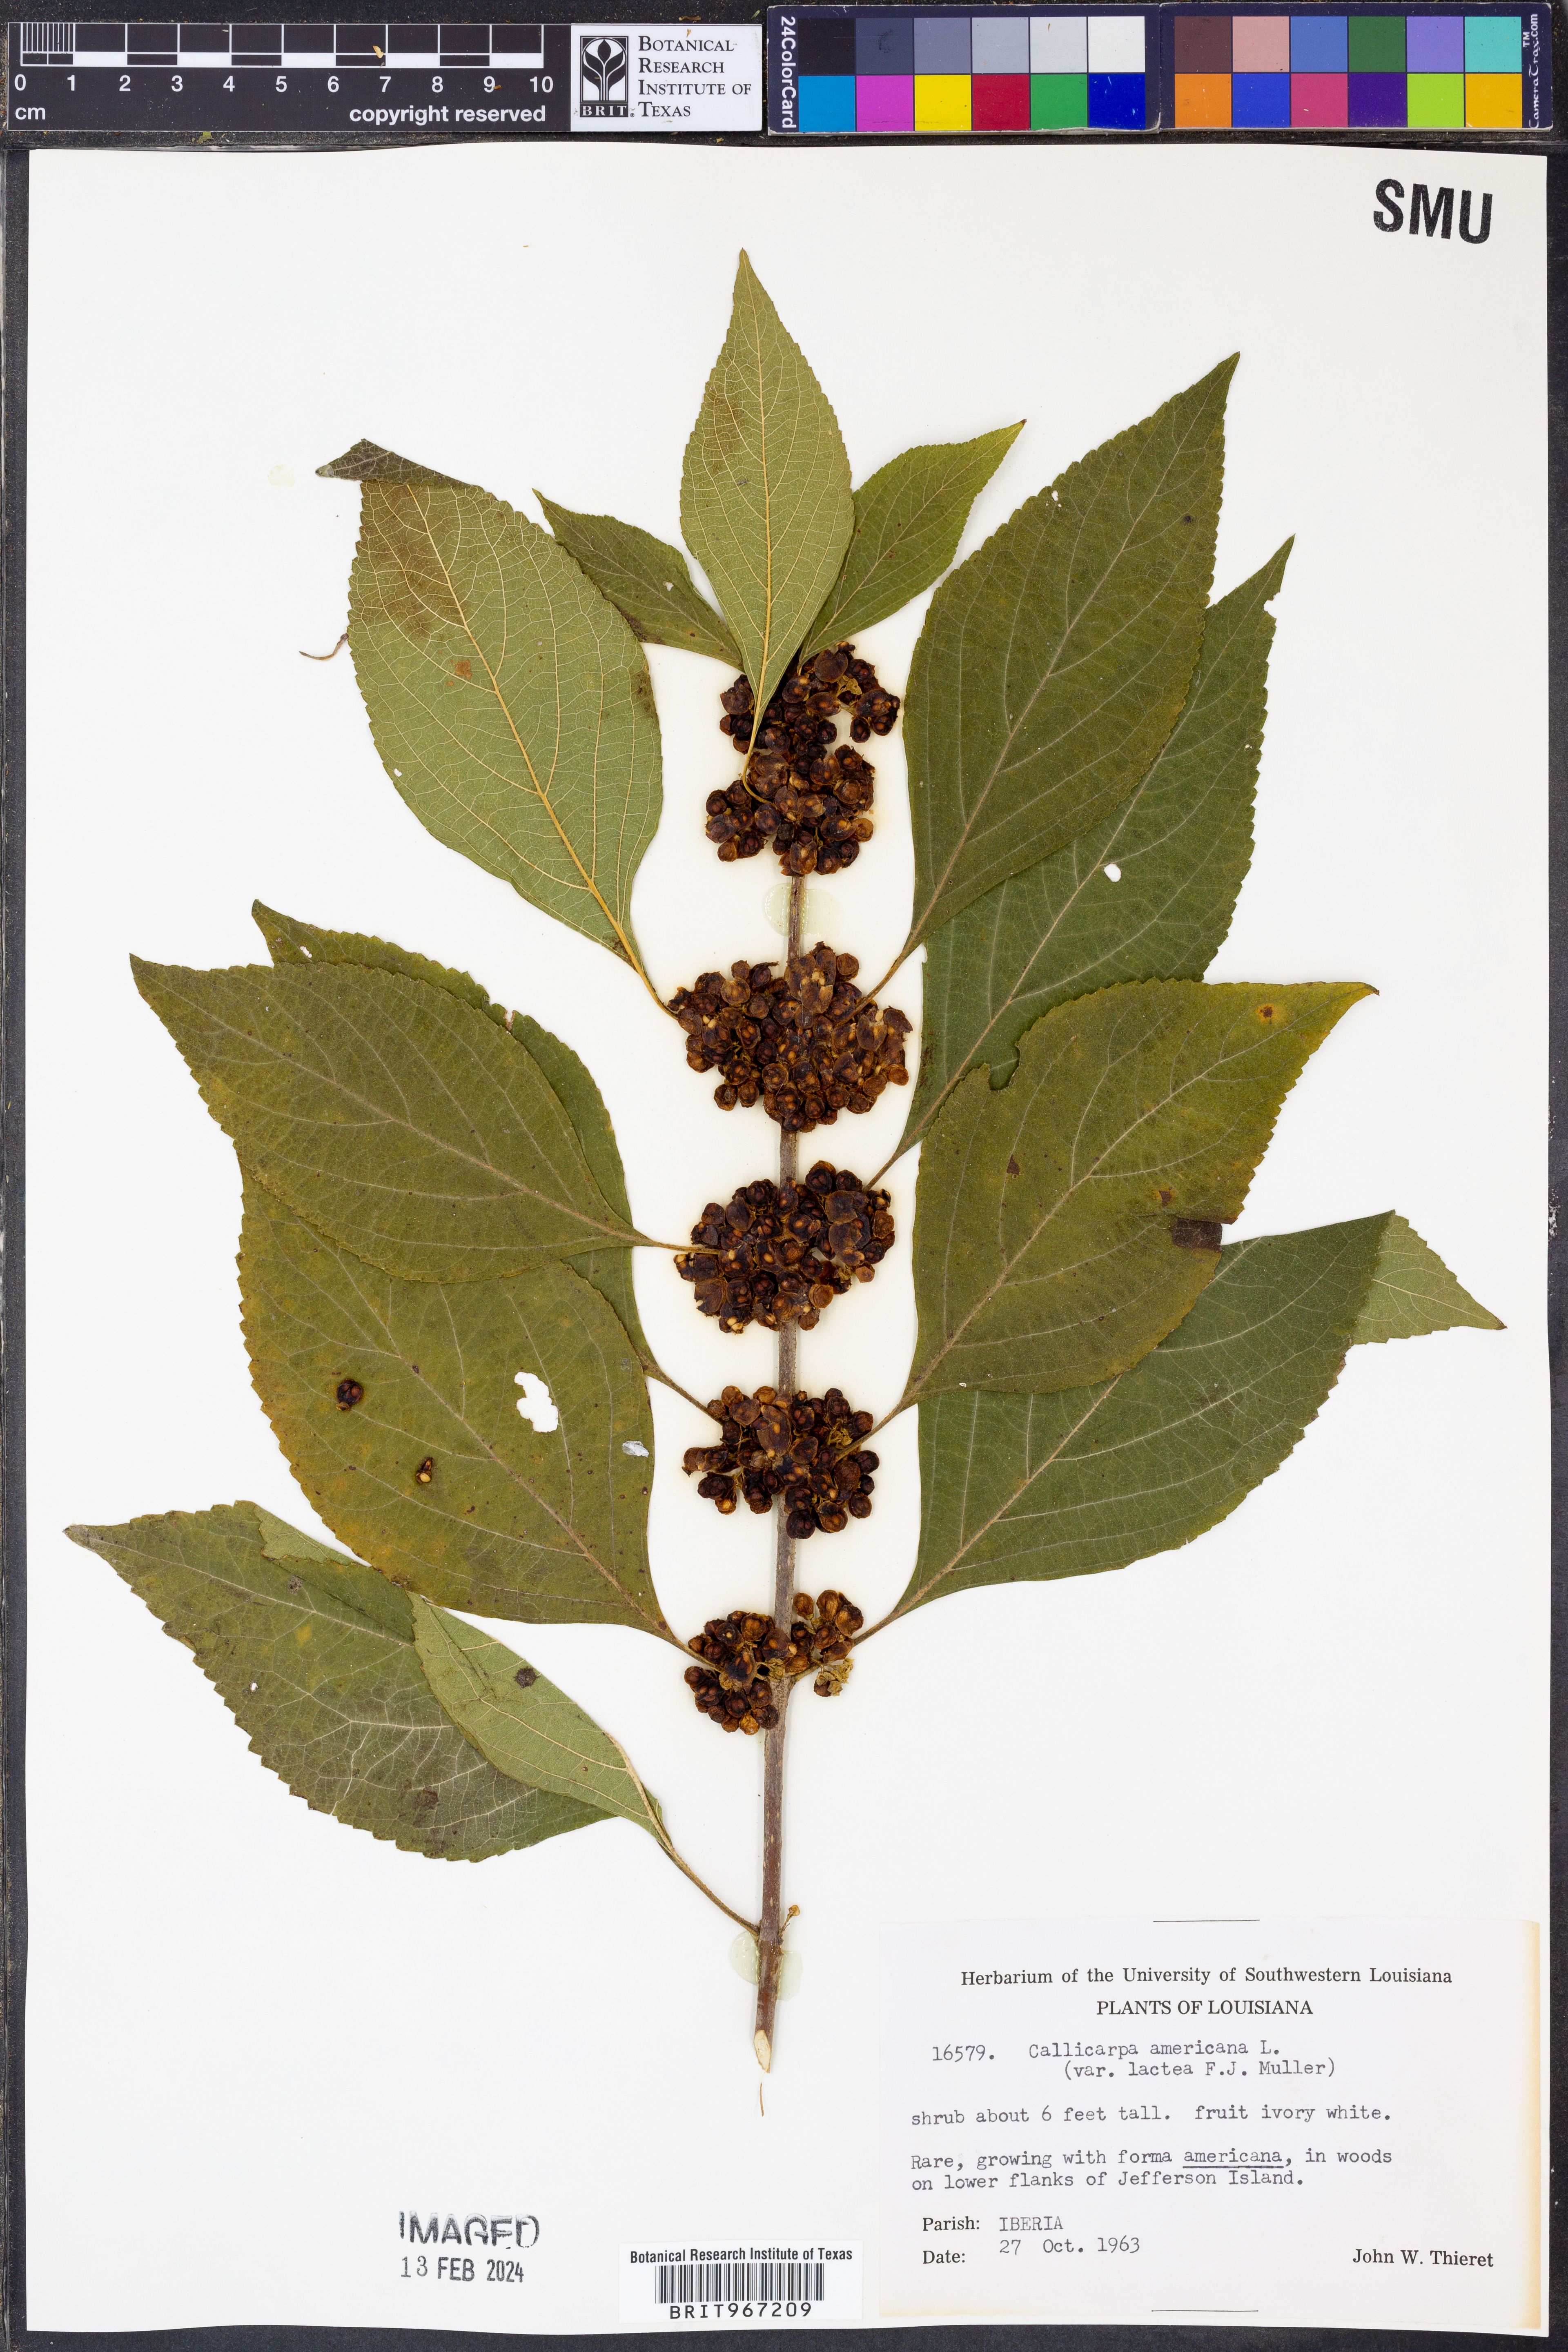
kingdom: Plantae
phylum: Tracheophyta
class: Magnoliopsida
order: Lamiales
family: Lamiaceae
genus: Callicarpa
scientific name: Callicarpa americana
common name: American beautyberry
